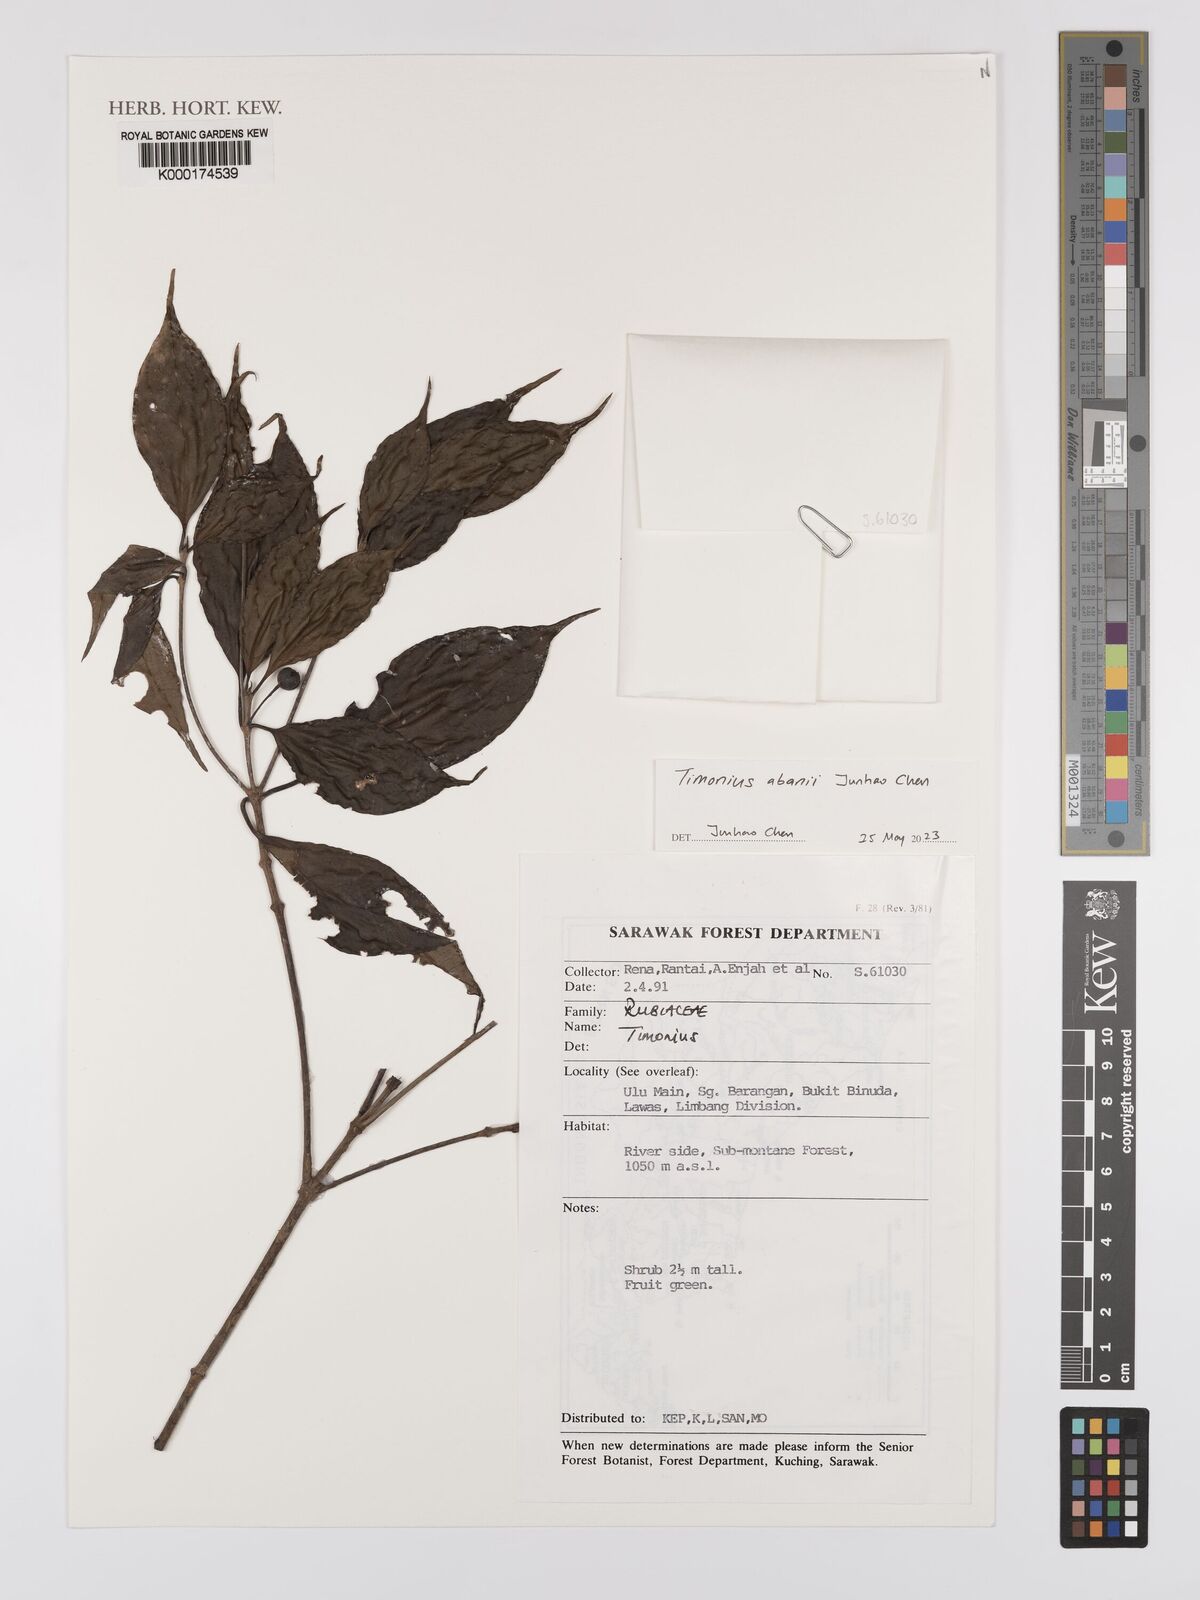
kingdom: Plantae
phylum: Tracheophyta
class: Magnoliopsida
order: Gentianales
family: Rubiaceae
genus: Timonius
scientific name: Timonius
